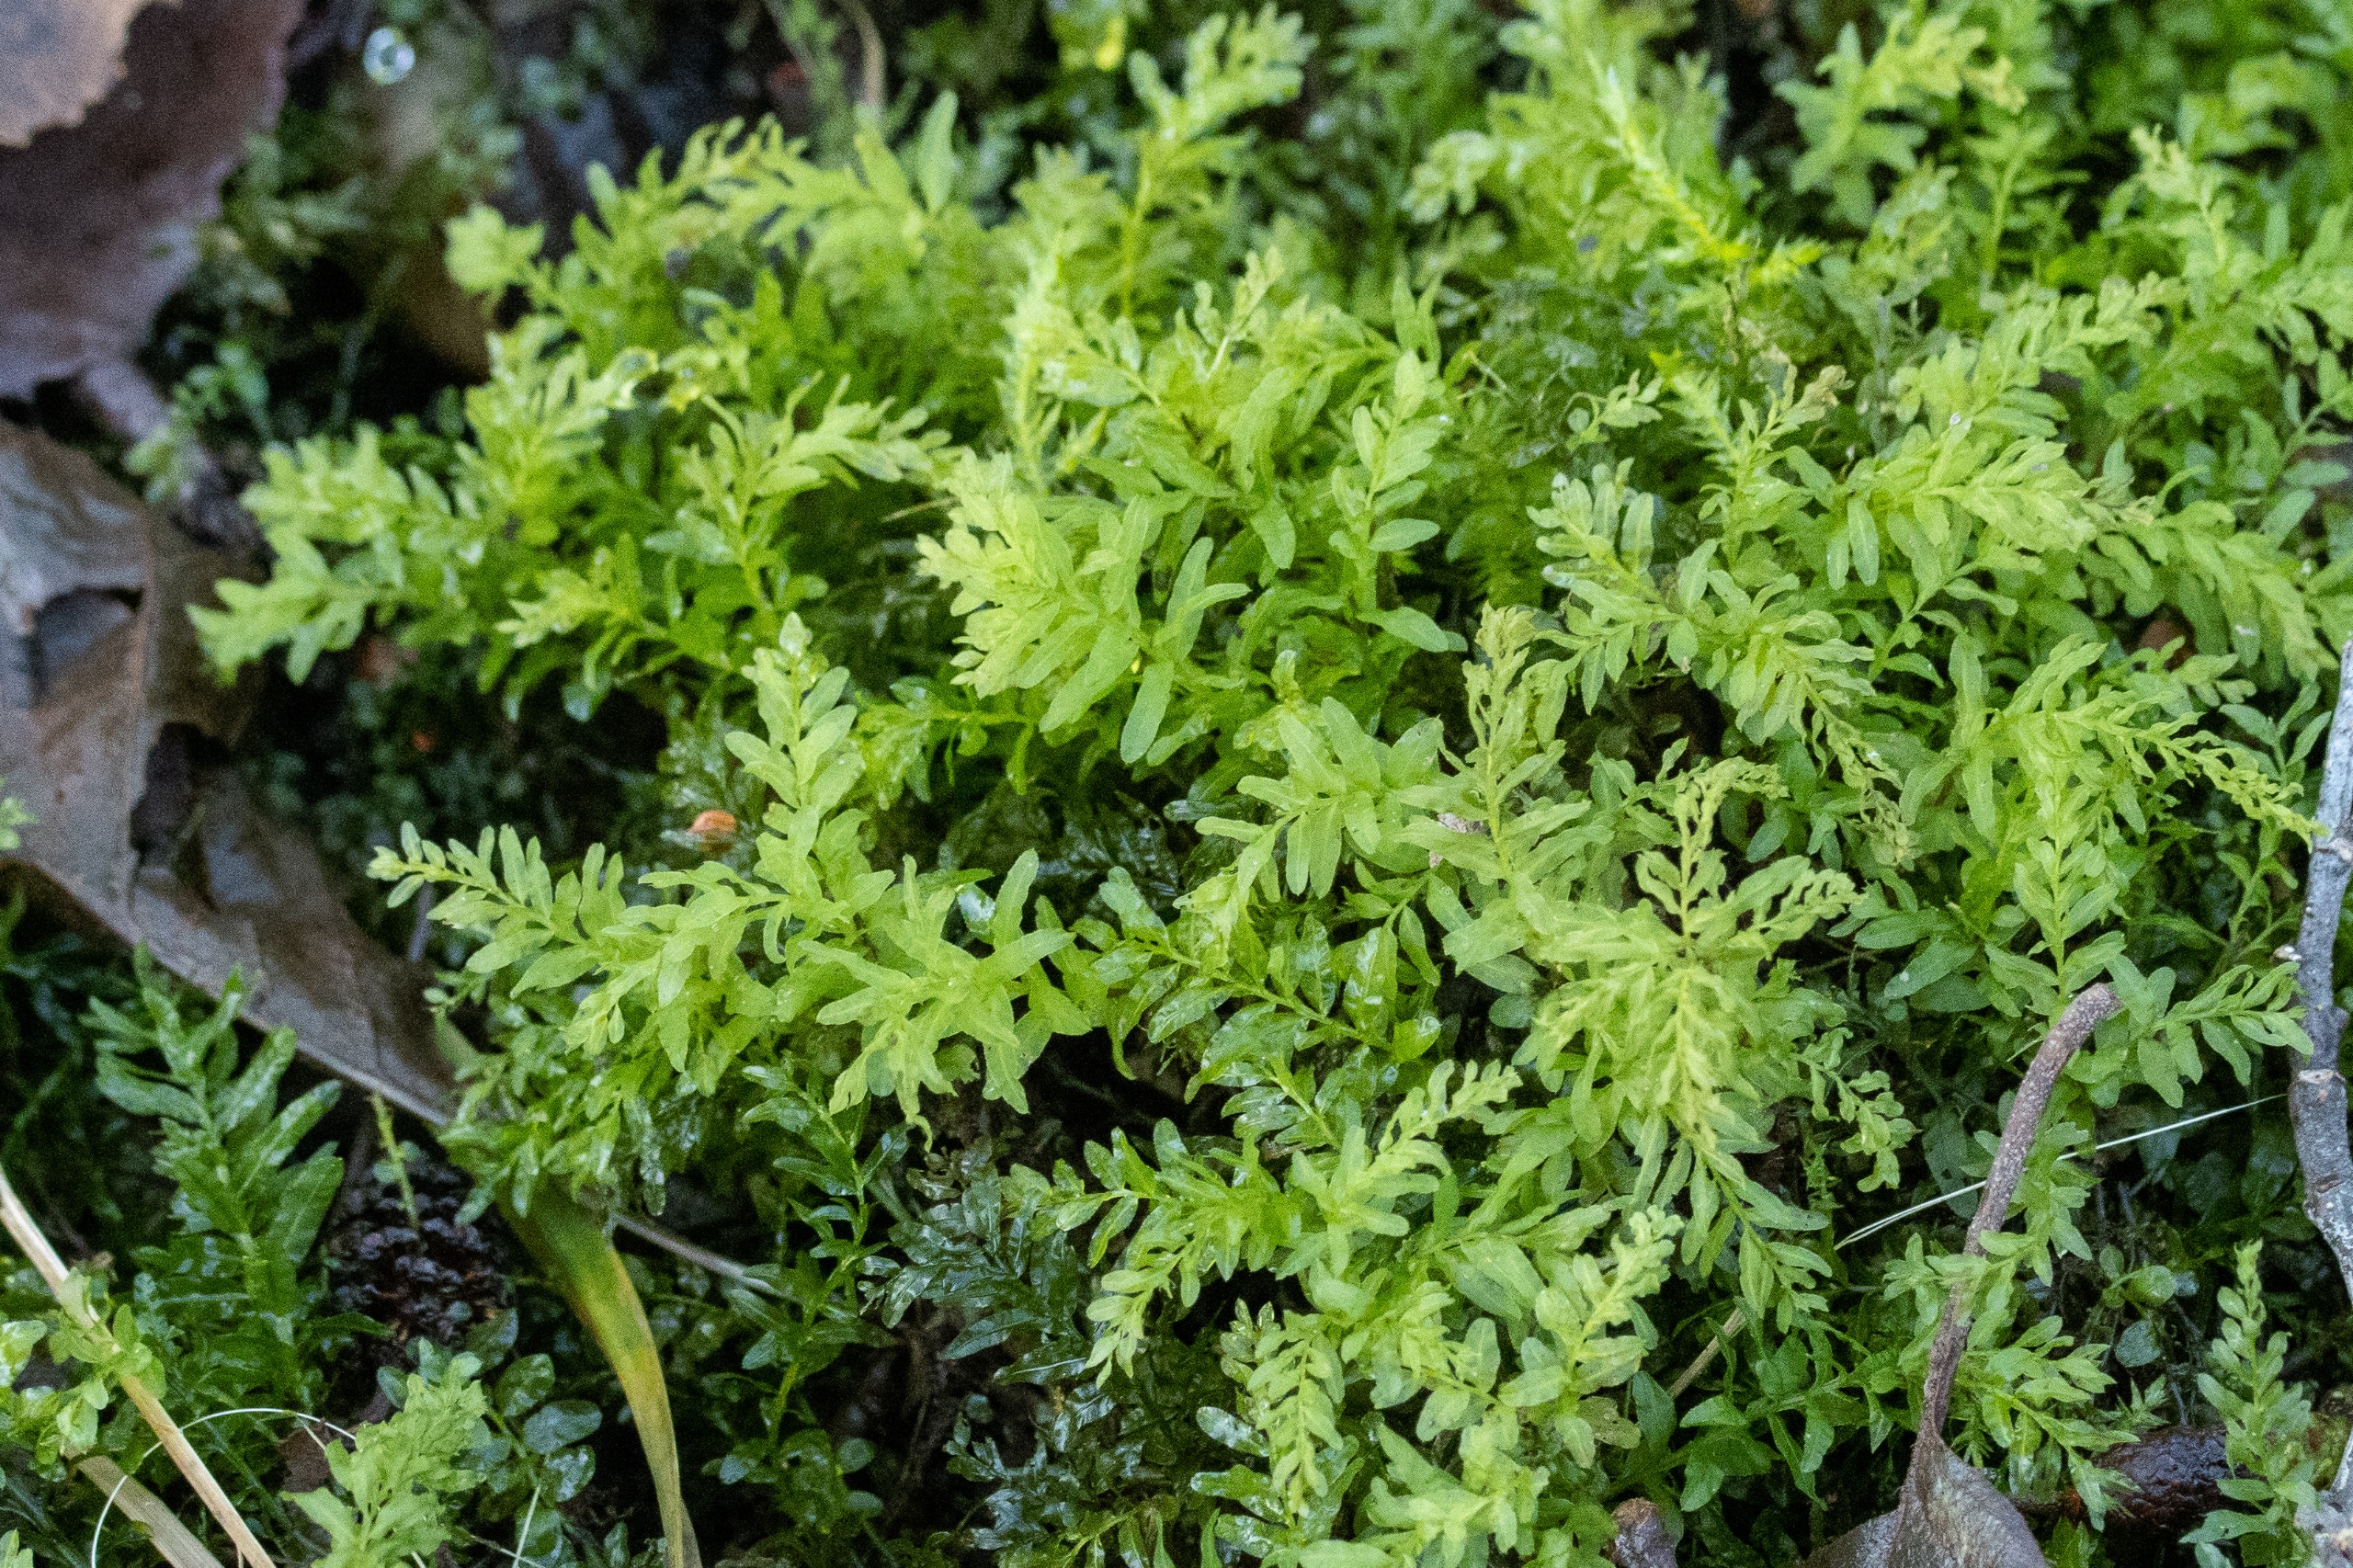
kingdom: Plantae
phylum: Bryophyta
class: Bryopsida
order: Bryales
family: Mniaceae
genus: Plagiomnium
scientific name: Plagiomnium undulatum
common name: Bølget krybstjerne
